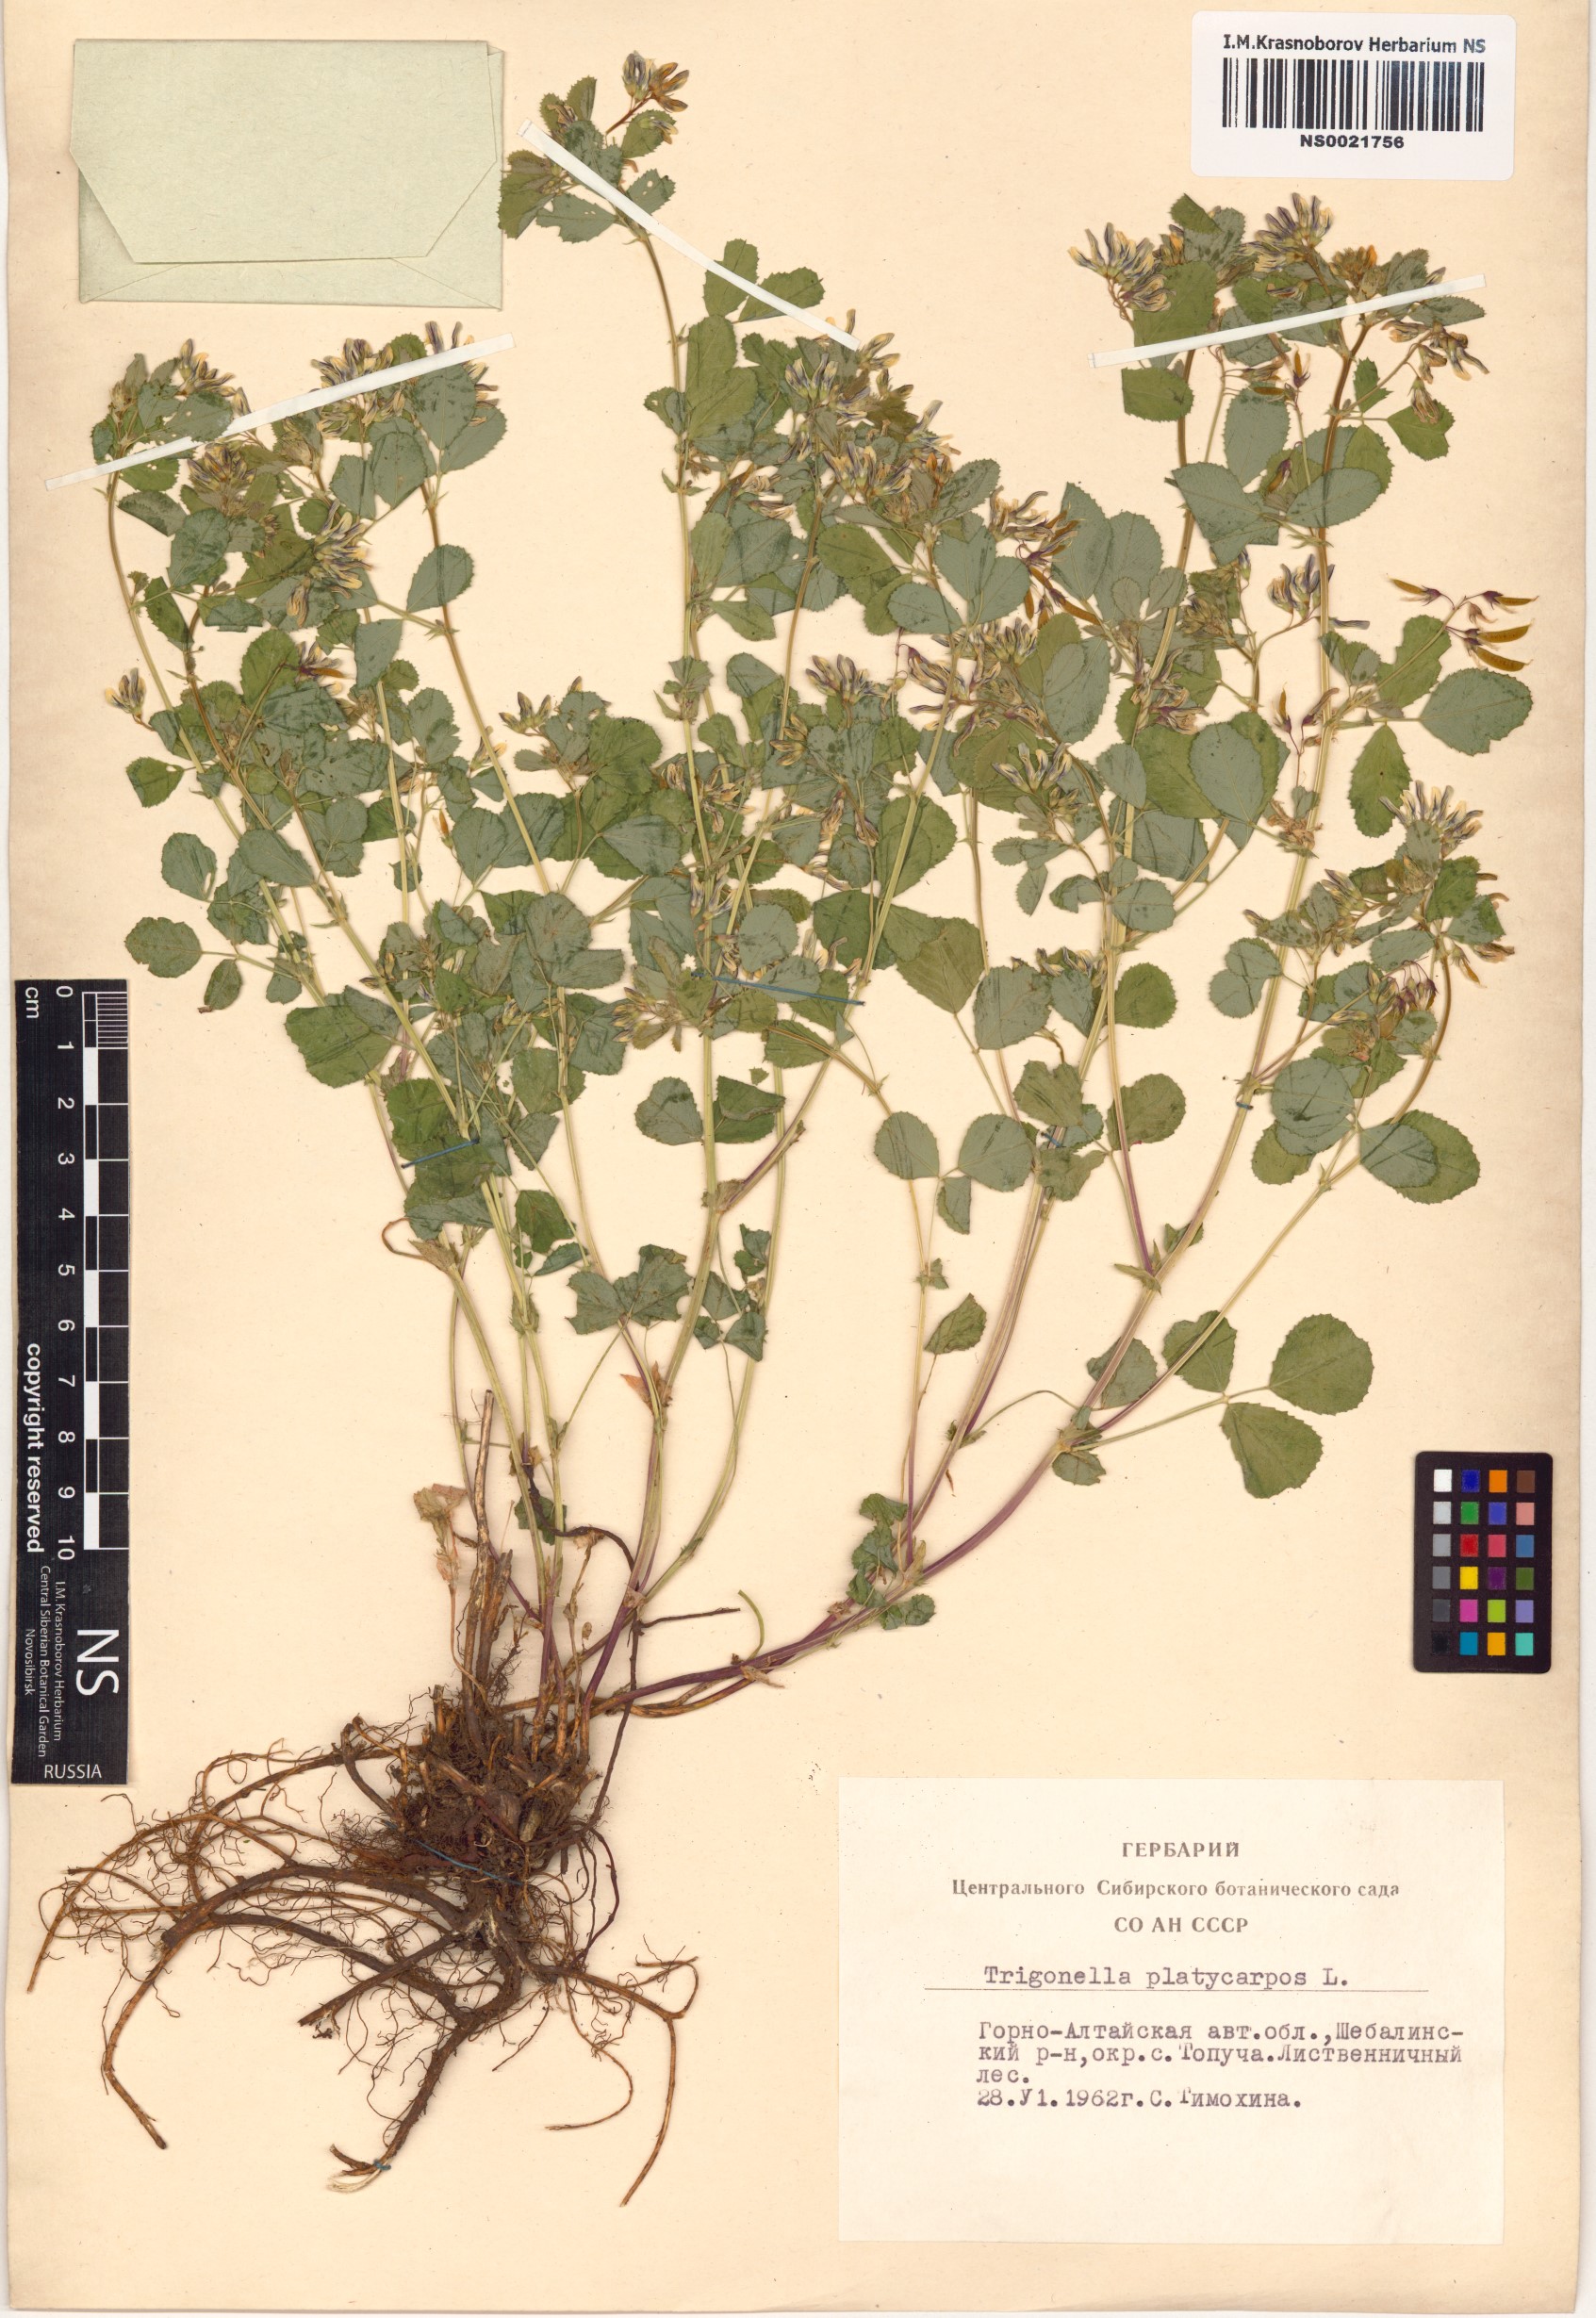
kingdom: Plantae
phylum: Tracheophyta
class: Magnoliopsida
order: Fabales
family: Fabaceae
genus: Medicago
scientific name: Medicago platycarpos
